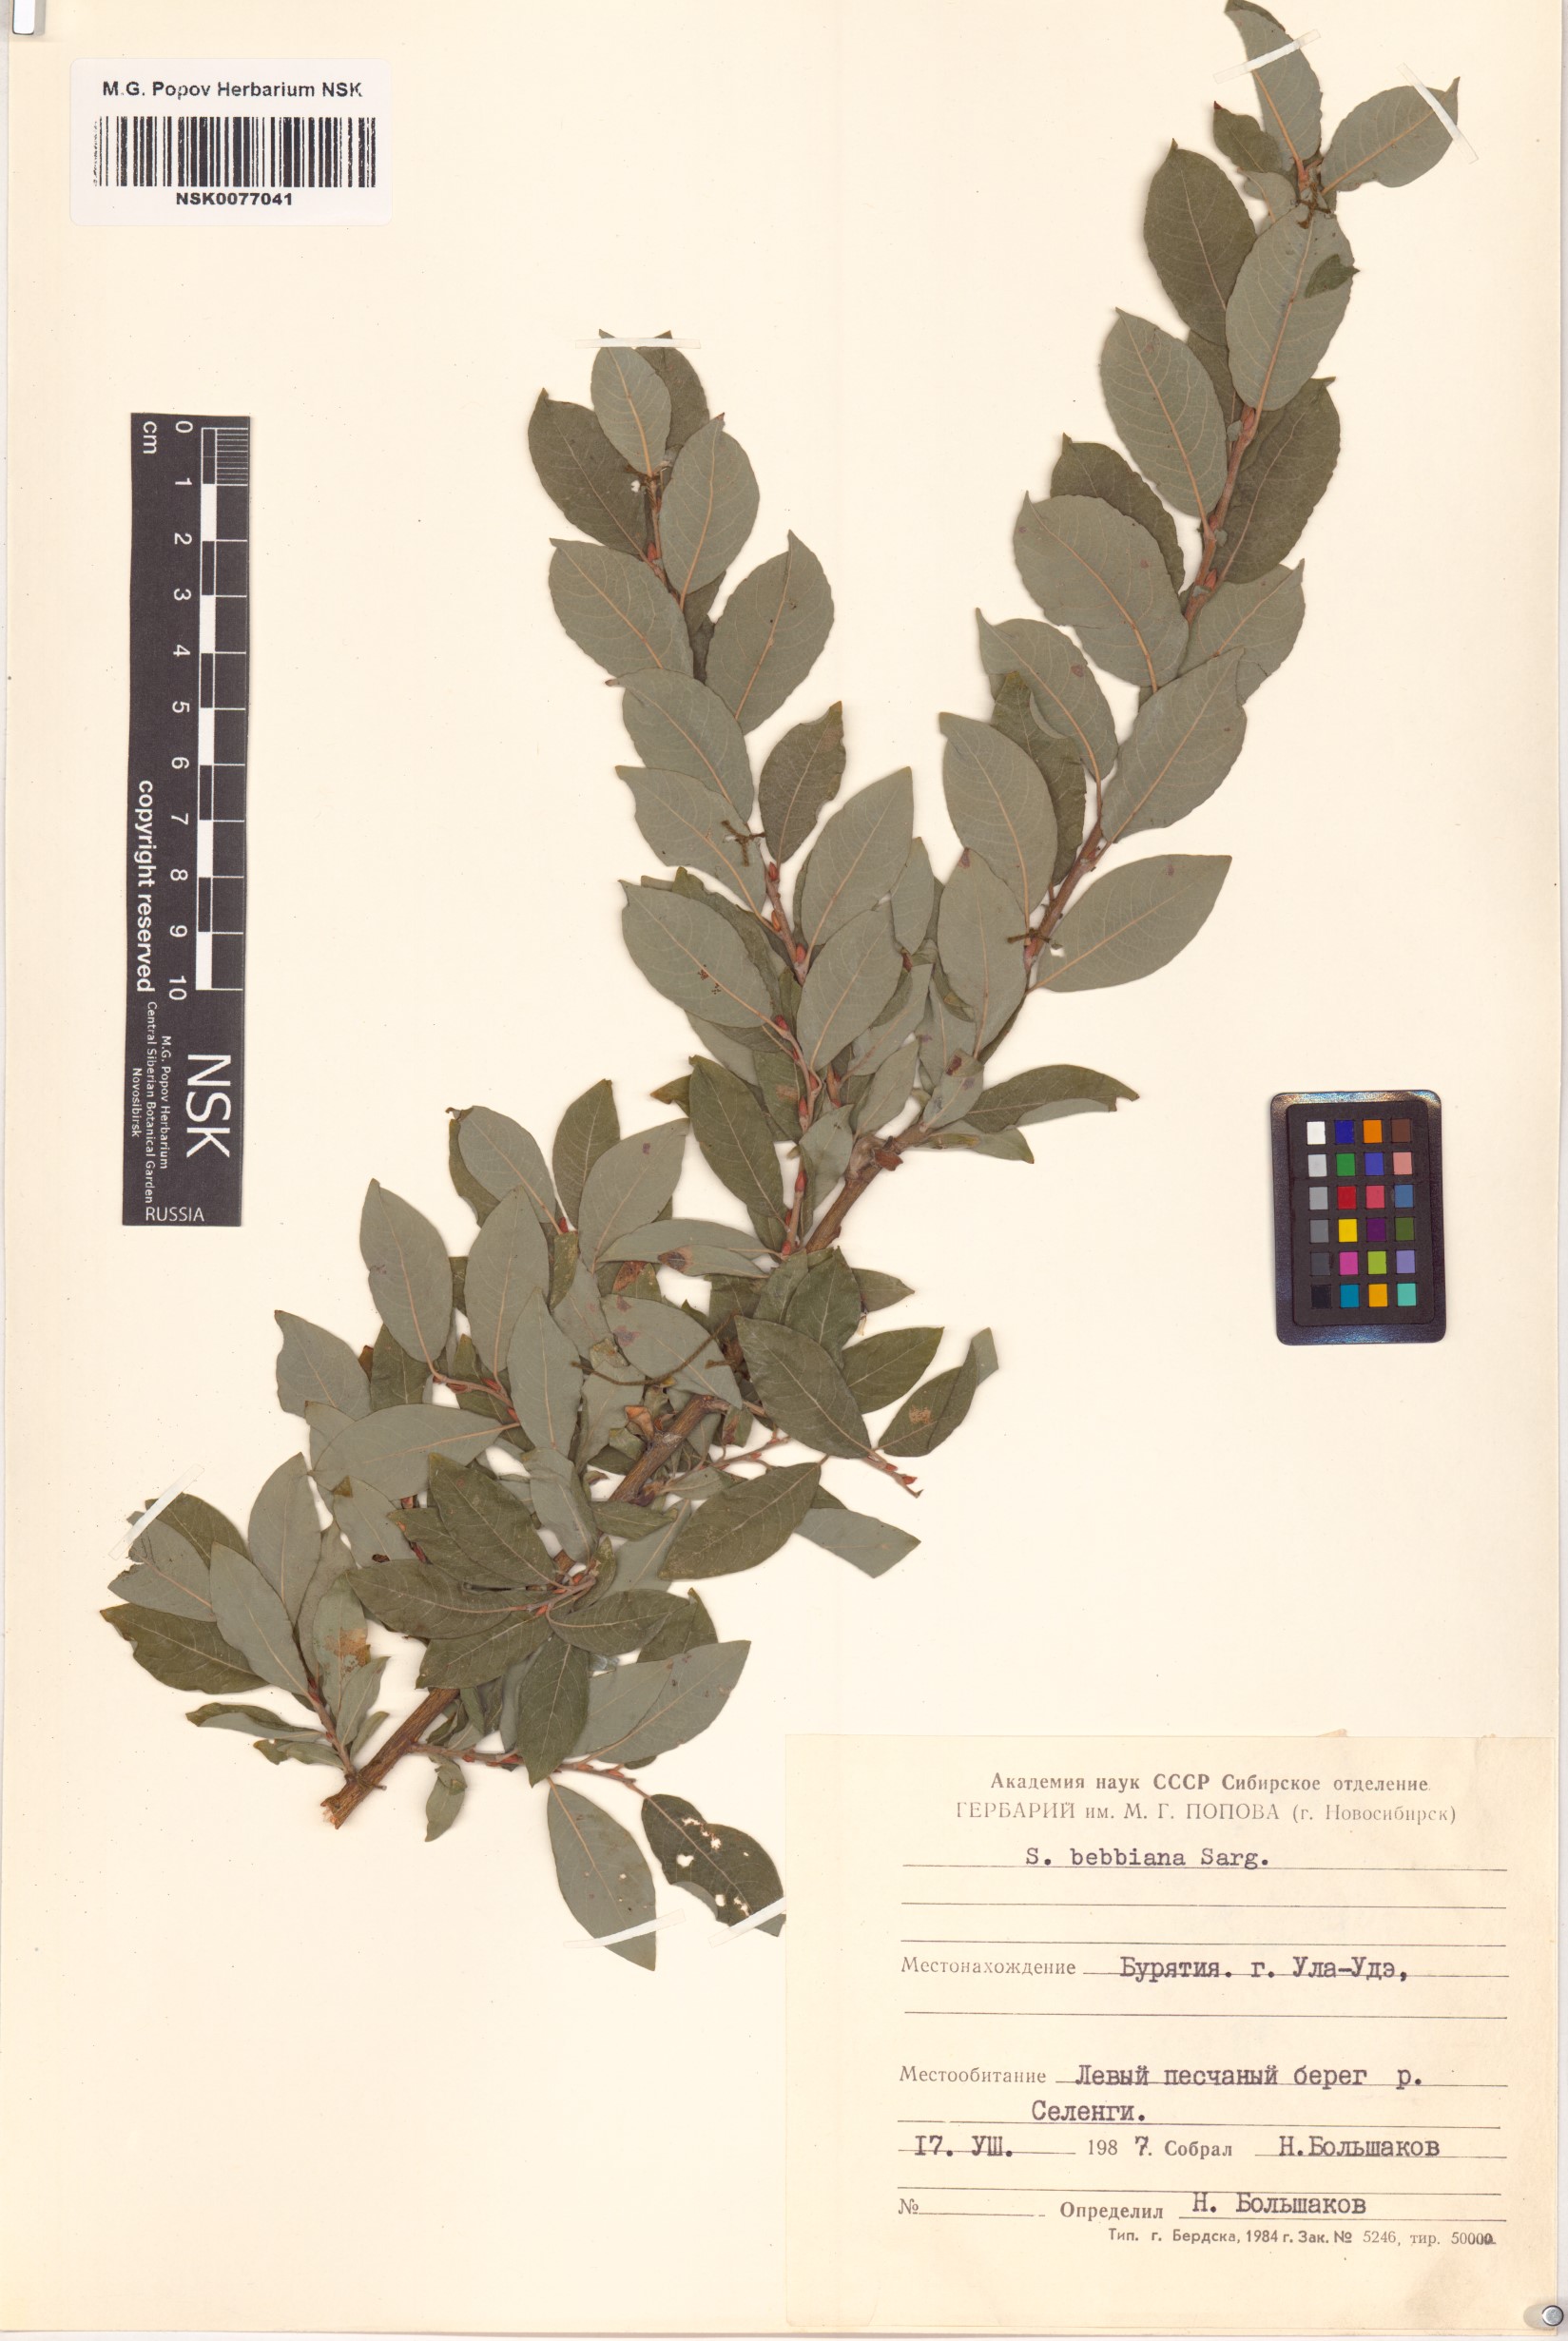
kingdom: Plantae
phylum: Tracheophyta
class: Magnoliopsida
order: Malpighiales
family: Salicaceae
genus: Salix
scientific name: Salix bebbiana
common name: Bebb's willow
